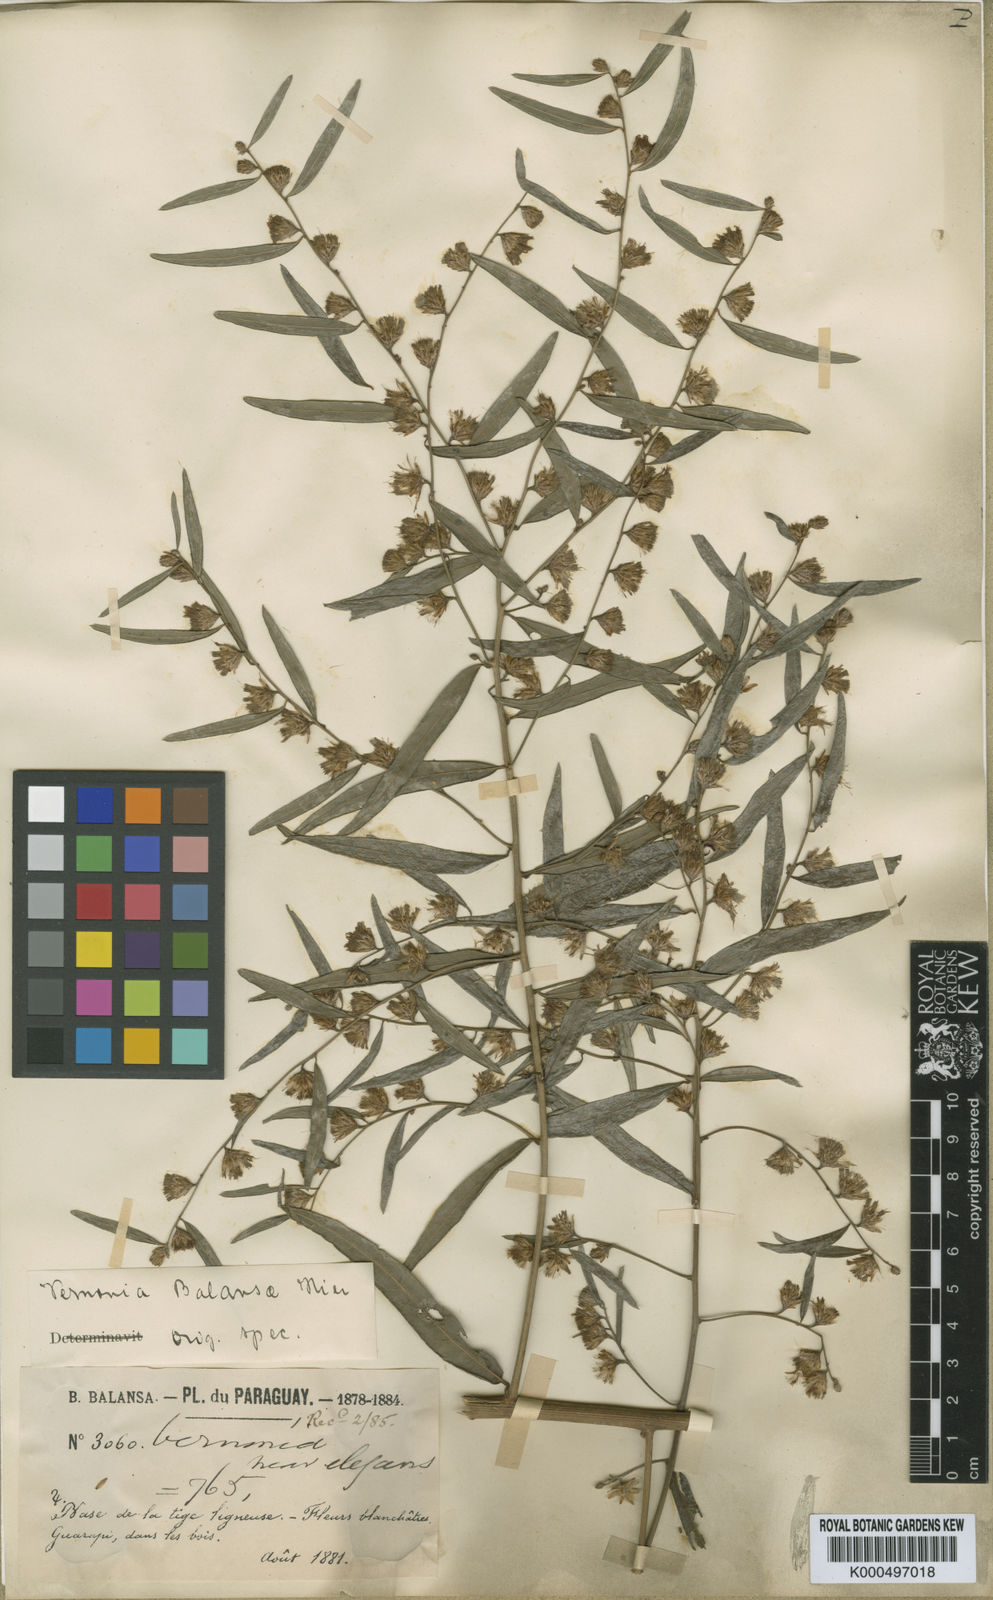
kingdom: Plantae
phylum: Tracheophyta
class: Magnoliopsida
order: Asterales
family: Asteraceae
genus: Lepidaploa
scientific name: Lepidaploa balansae
